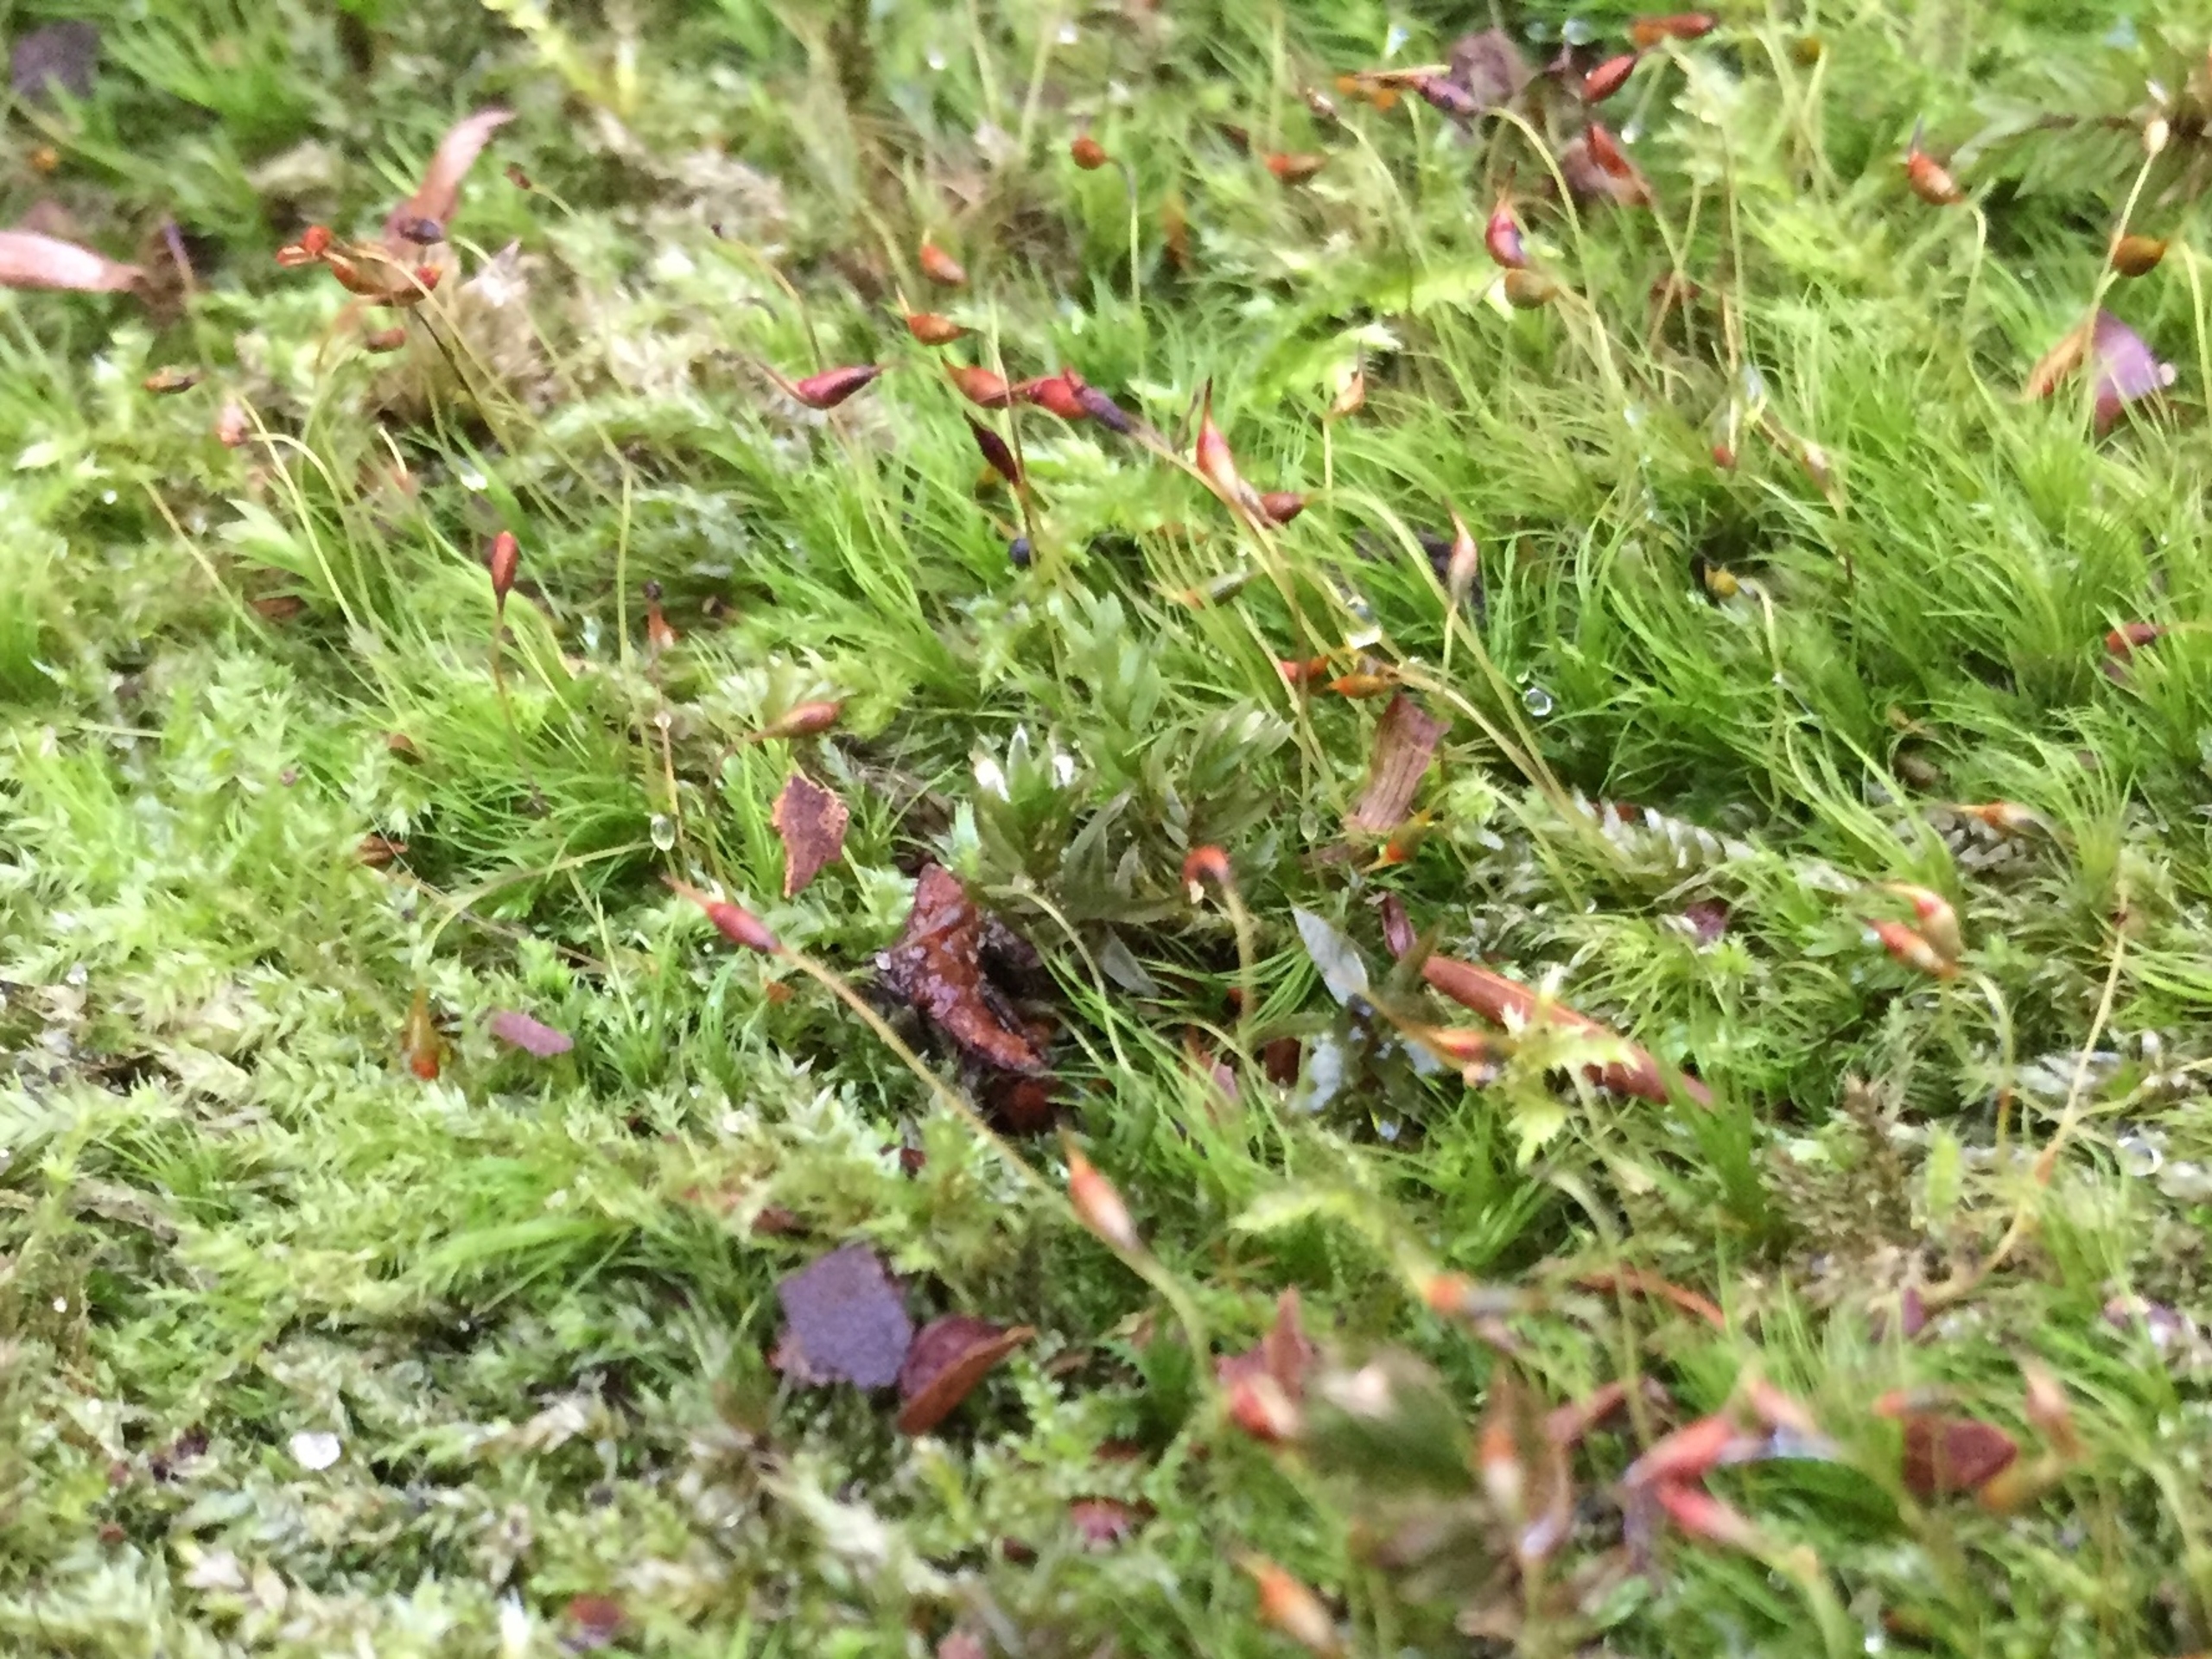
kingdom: Plantae
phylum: Bryophyta
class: Bryopsida
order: Dicranales
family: Dicranellaceae
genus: Dicranella
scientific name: Dicranella heteromalla
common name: Almindelig fløjlsmos
